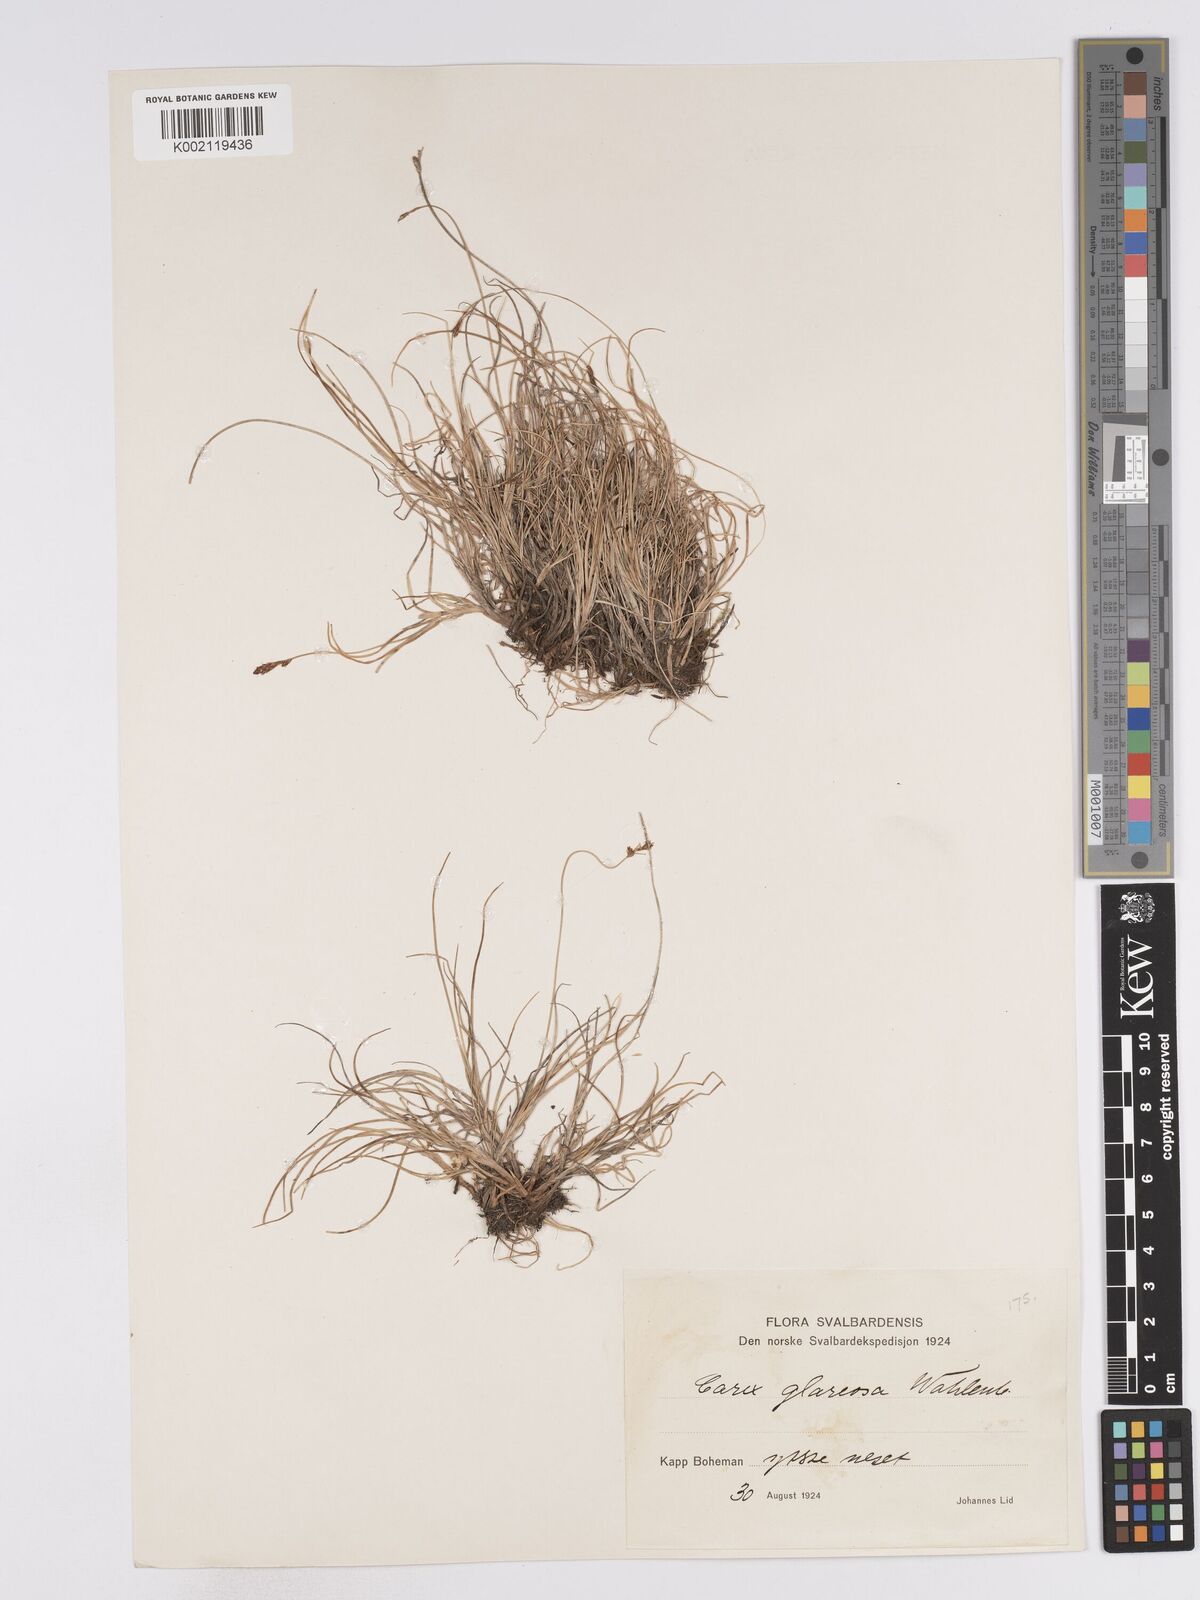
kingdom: Plantae
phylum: Tracheophyta
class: Liliopsida
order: Poales
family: Cyperaceae
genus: Carex
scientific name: Carex glareosa
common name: Clustered sedge
